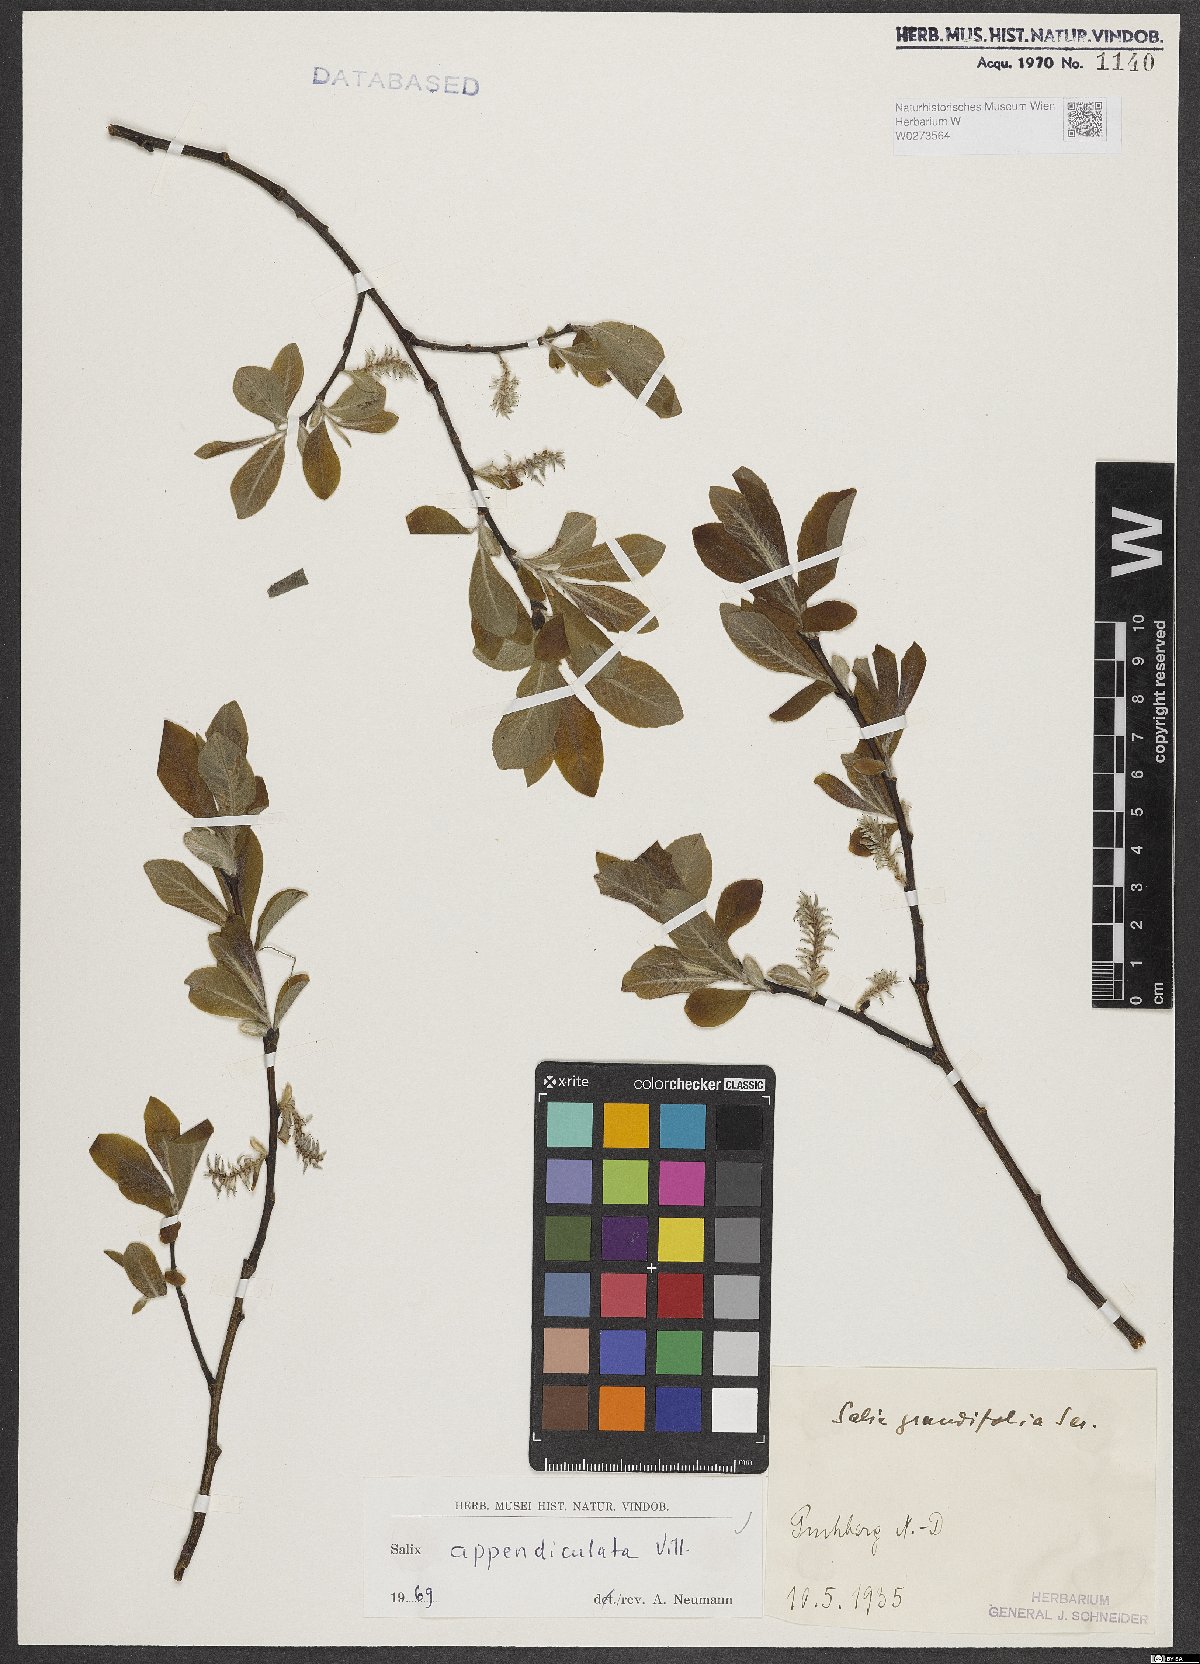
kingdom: Plantae
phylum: Tracheophyta
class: Magnoliopsida
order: Malpighiales
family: Salicaceae
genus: Salix
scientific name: Salix appendiculata
